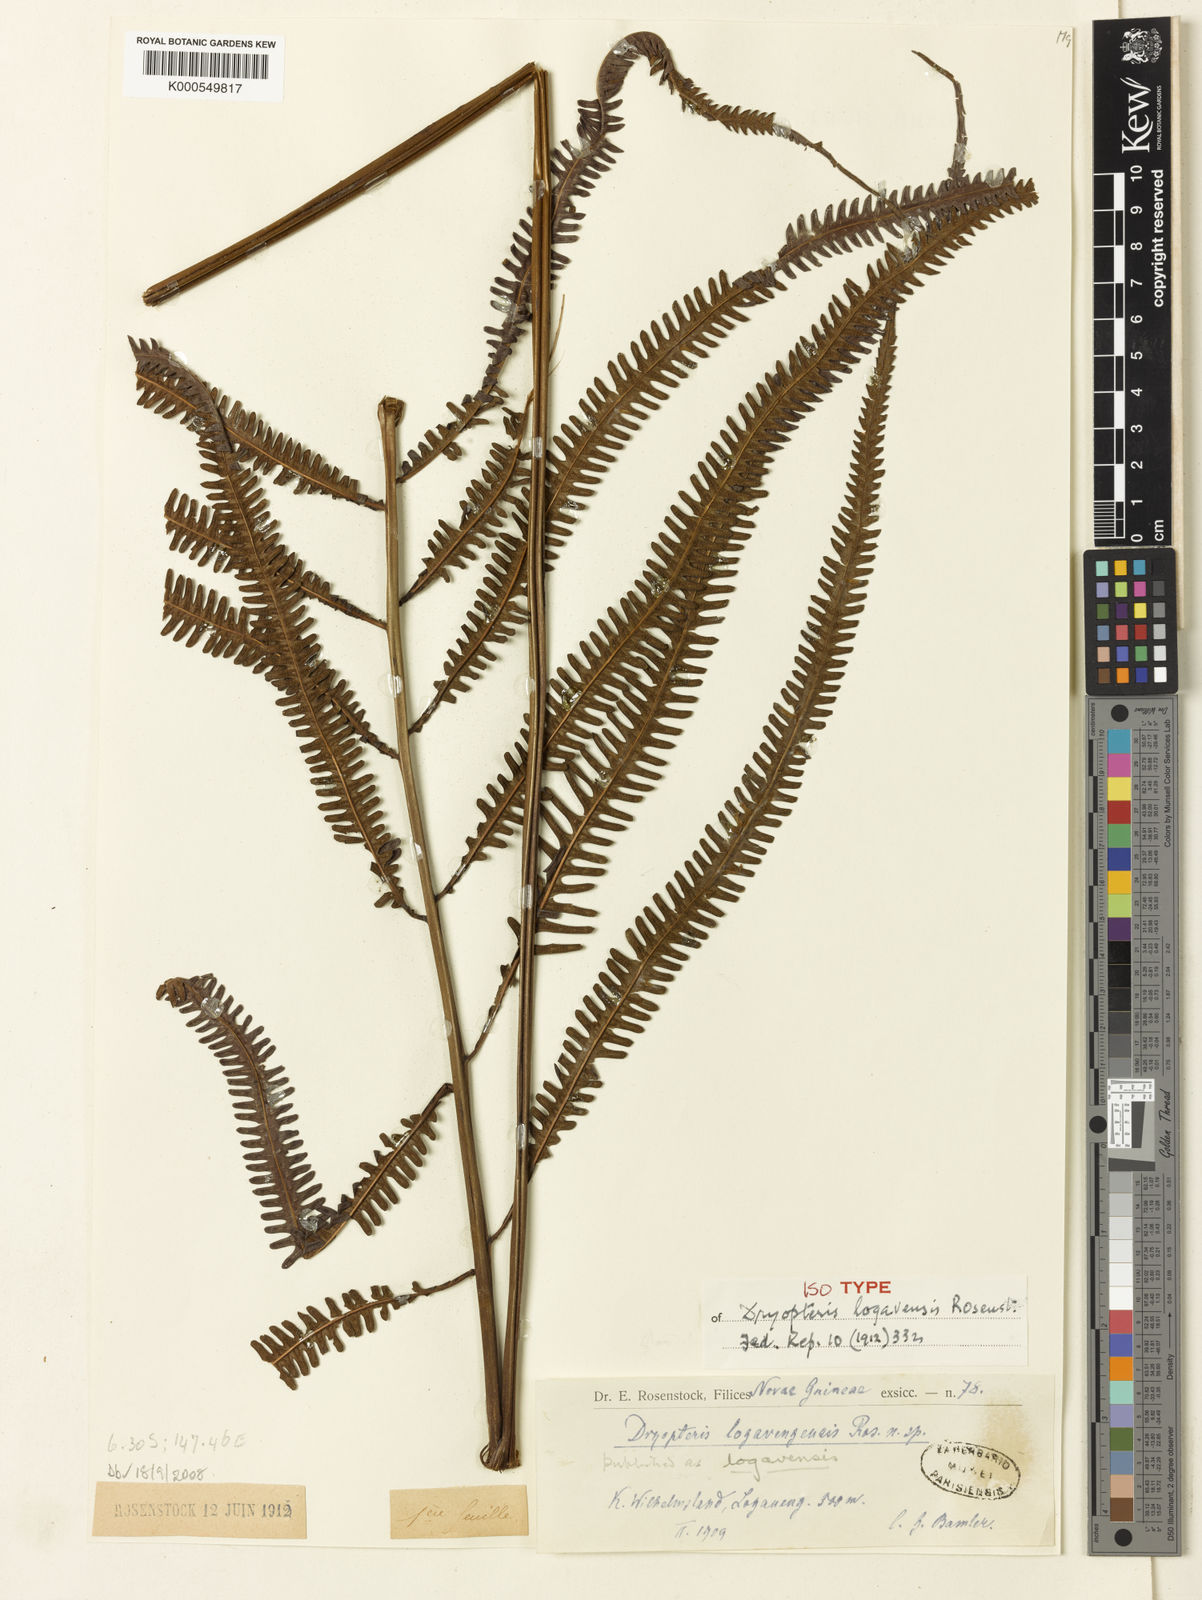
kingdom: Plantae
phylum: Tracheophyta
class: Polypodiopsida
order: Polypodiales
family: Thelypteridaceae
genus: Mesopteris
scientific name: Mesopteris ceramica
